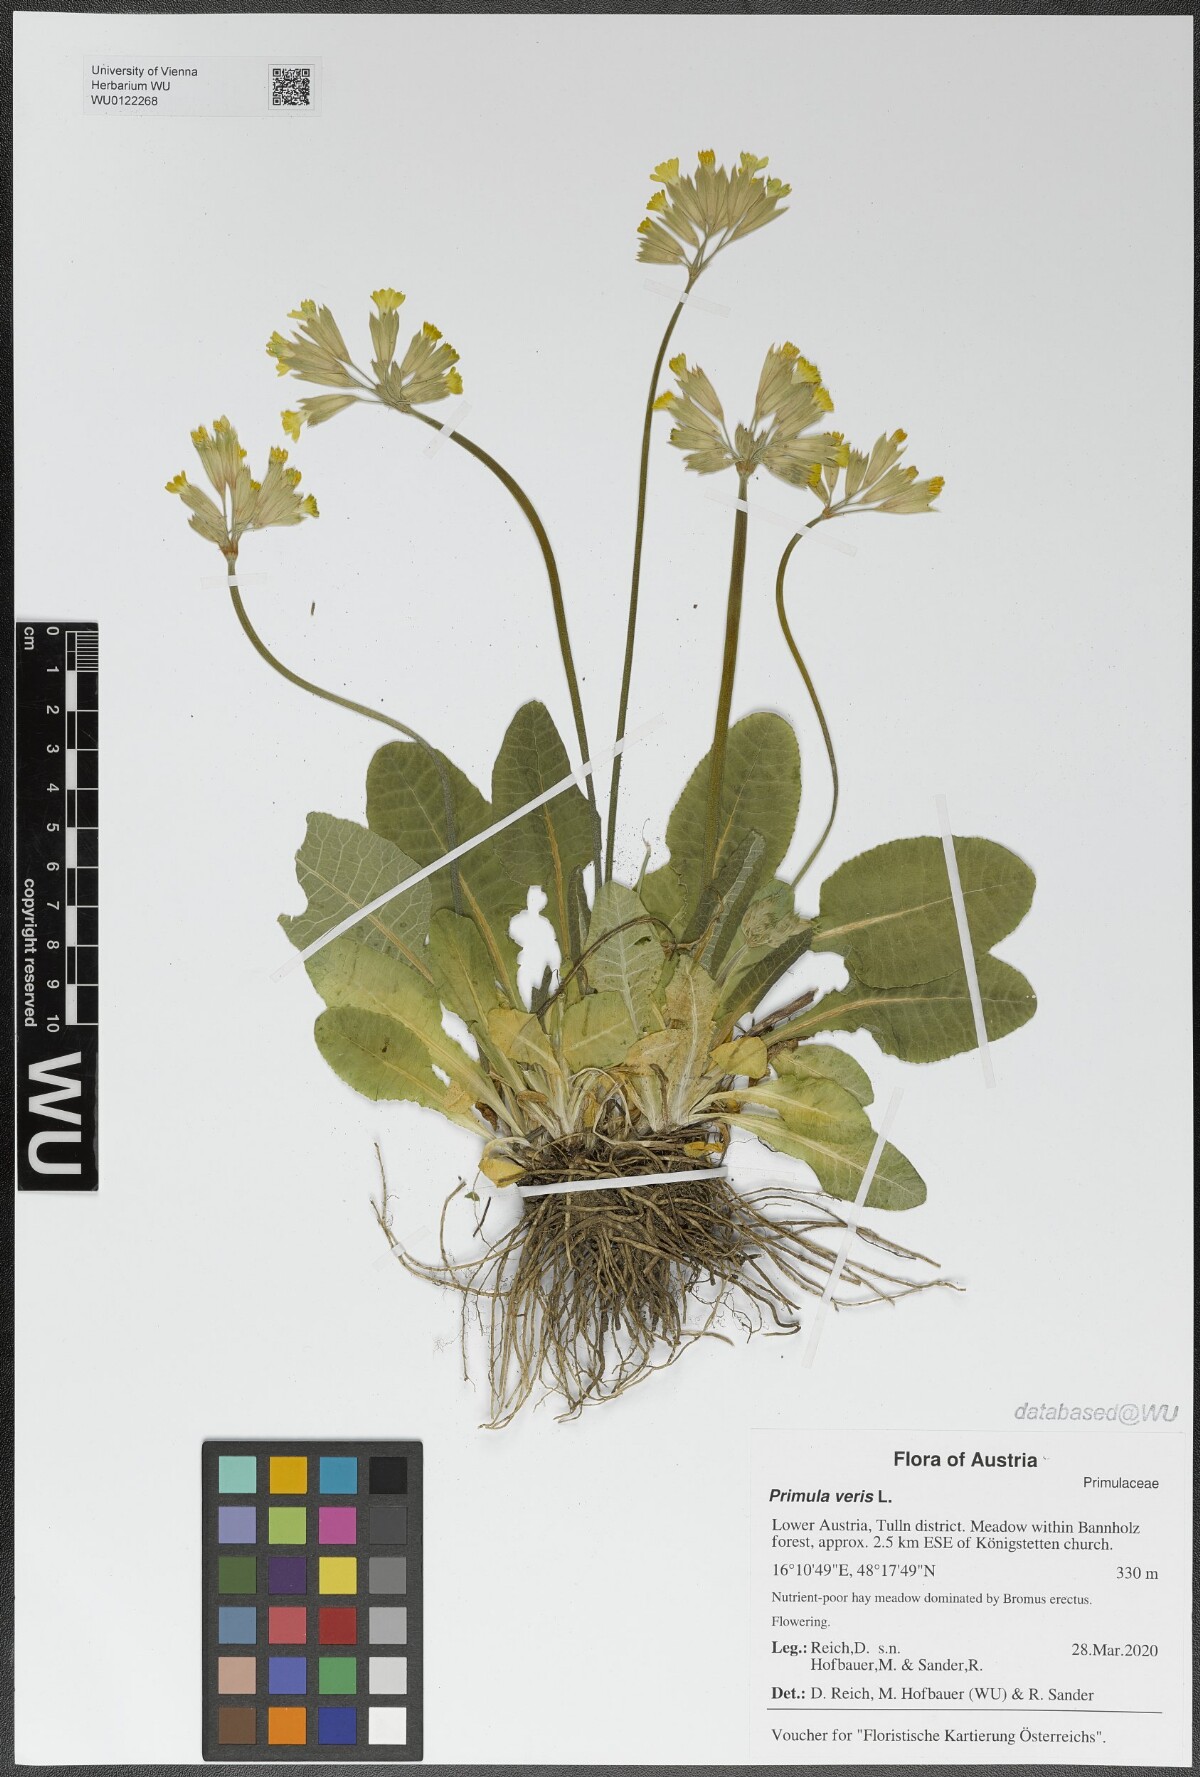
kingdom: Plantae
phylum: Tracheophyta
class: Magnoliopsida
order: Ericales
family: Primulaceae
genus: Primula
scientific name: Primula veris
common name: Cowslip
